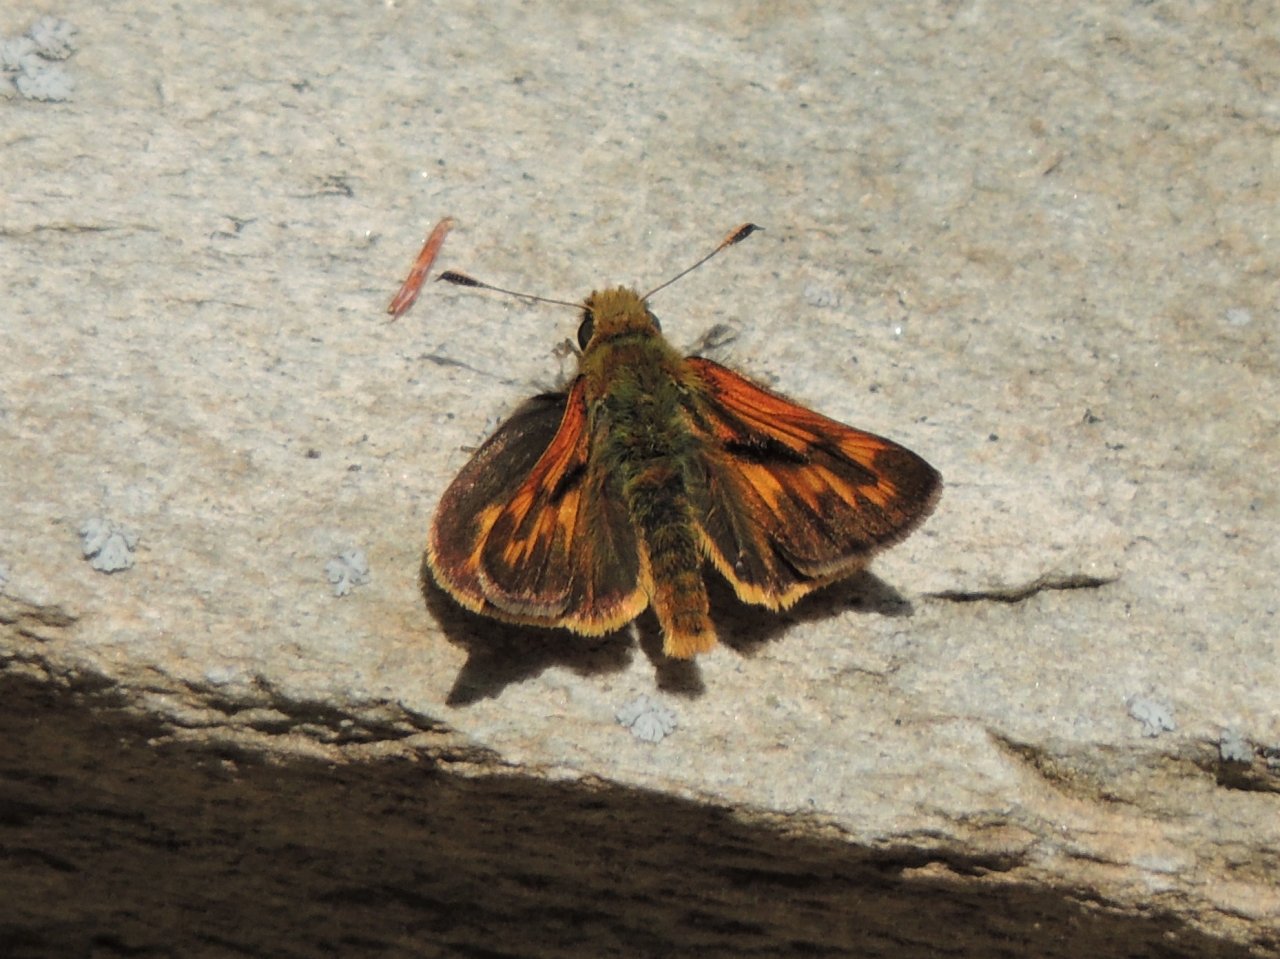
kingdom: Animalia
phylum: Arthropoda
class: Insecta
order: Lepidoptera
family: Hesperiidae
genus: Hesperia
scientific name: Hesperia juba
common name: Juba Skipper
